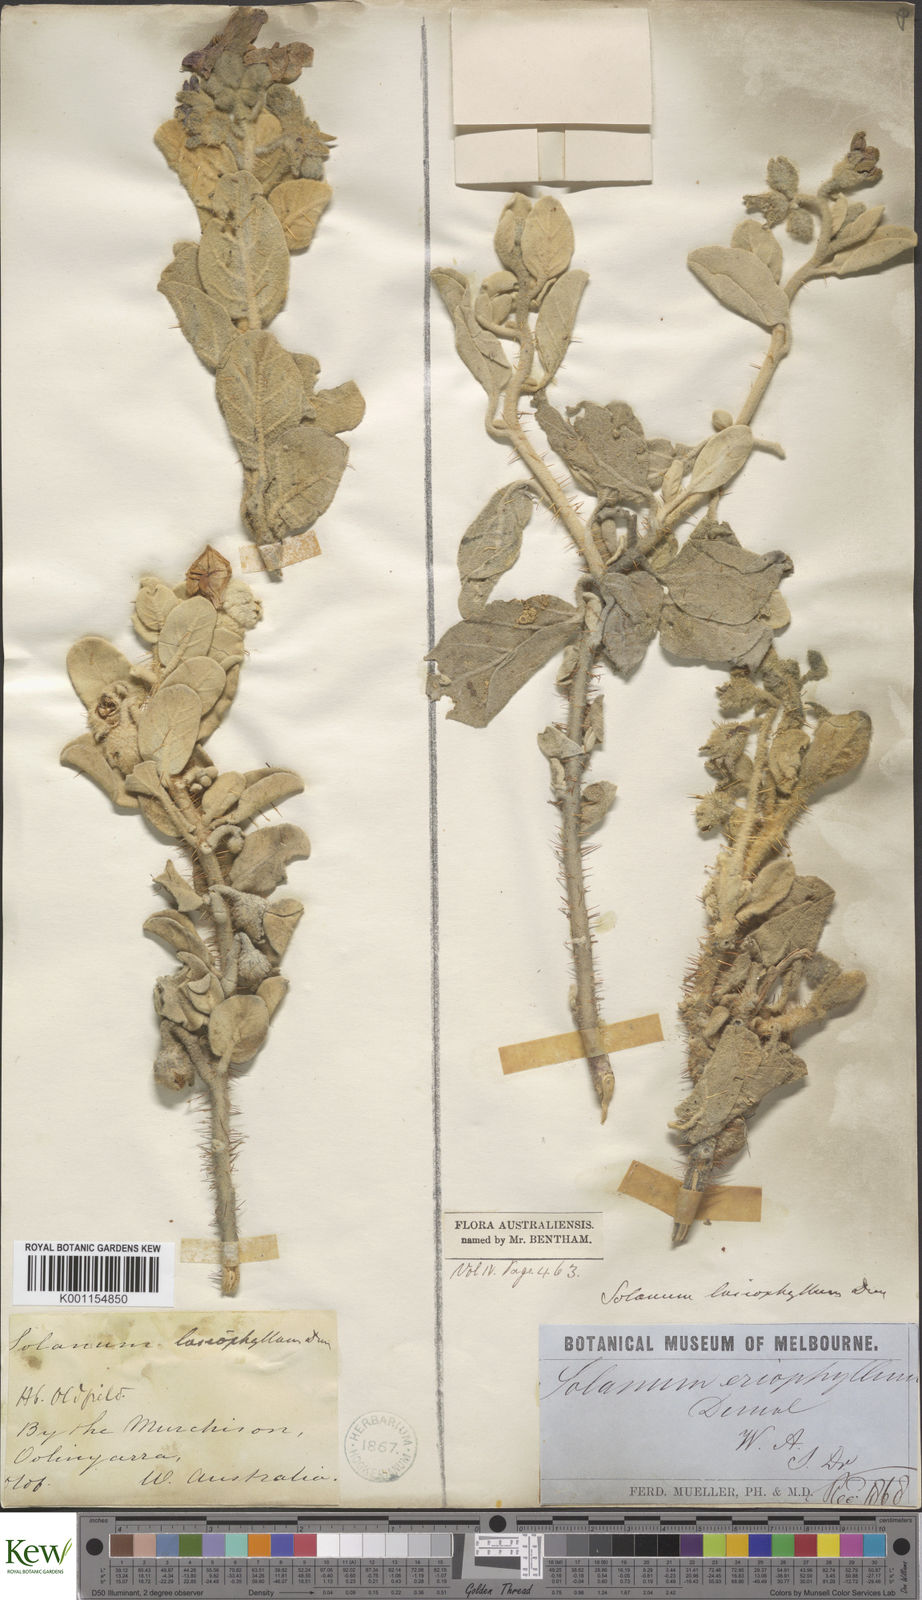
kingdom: Plantae
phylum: Tracheophyta
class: Magnoliopsida
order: Solanales
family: Solanaceae
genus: Solanum
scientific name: Solanum lasiophyllum
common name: Flannelbush
